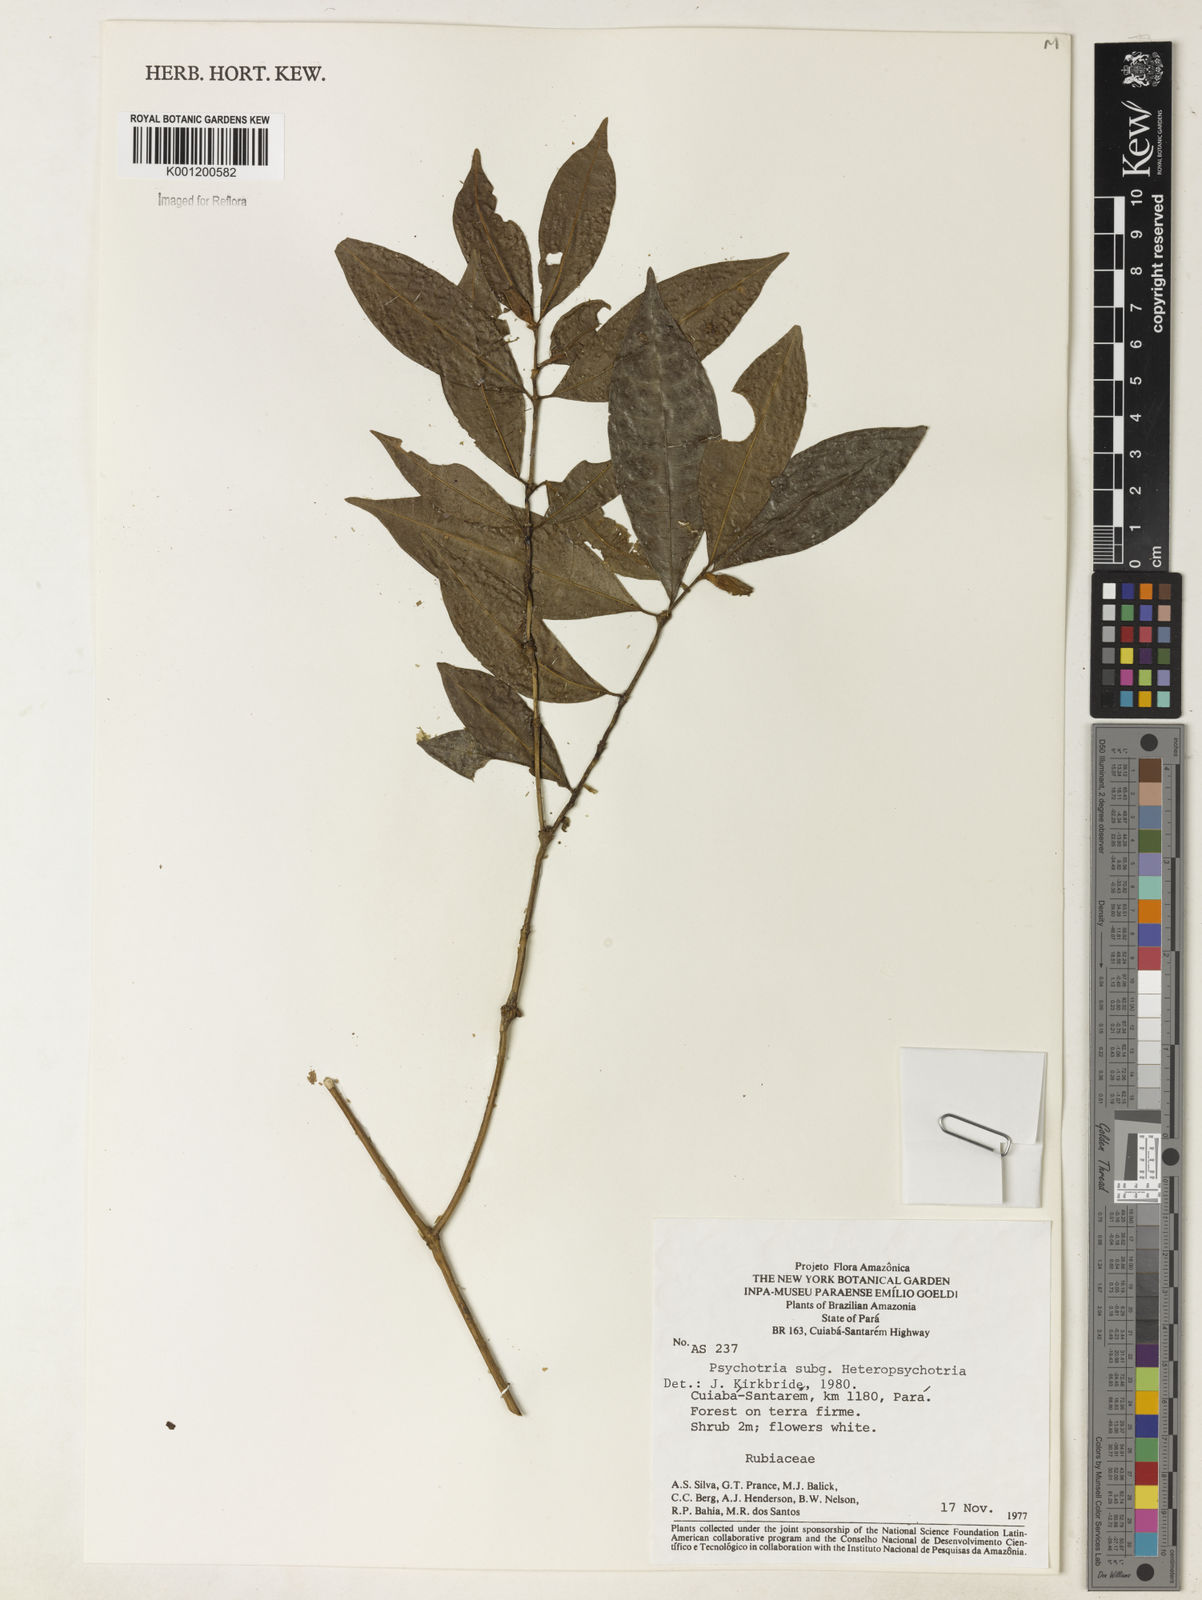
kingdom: Plantae
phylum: Tracheophyta
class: Magnoliopsida
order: Gentianales
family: Rubiaceae
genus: Psychotria
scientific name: Psychotria
